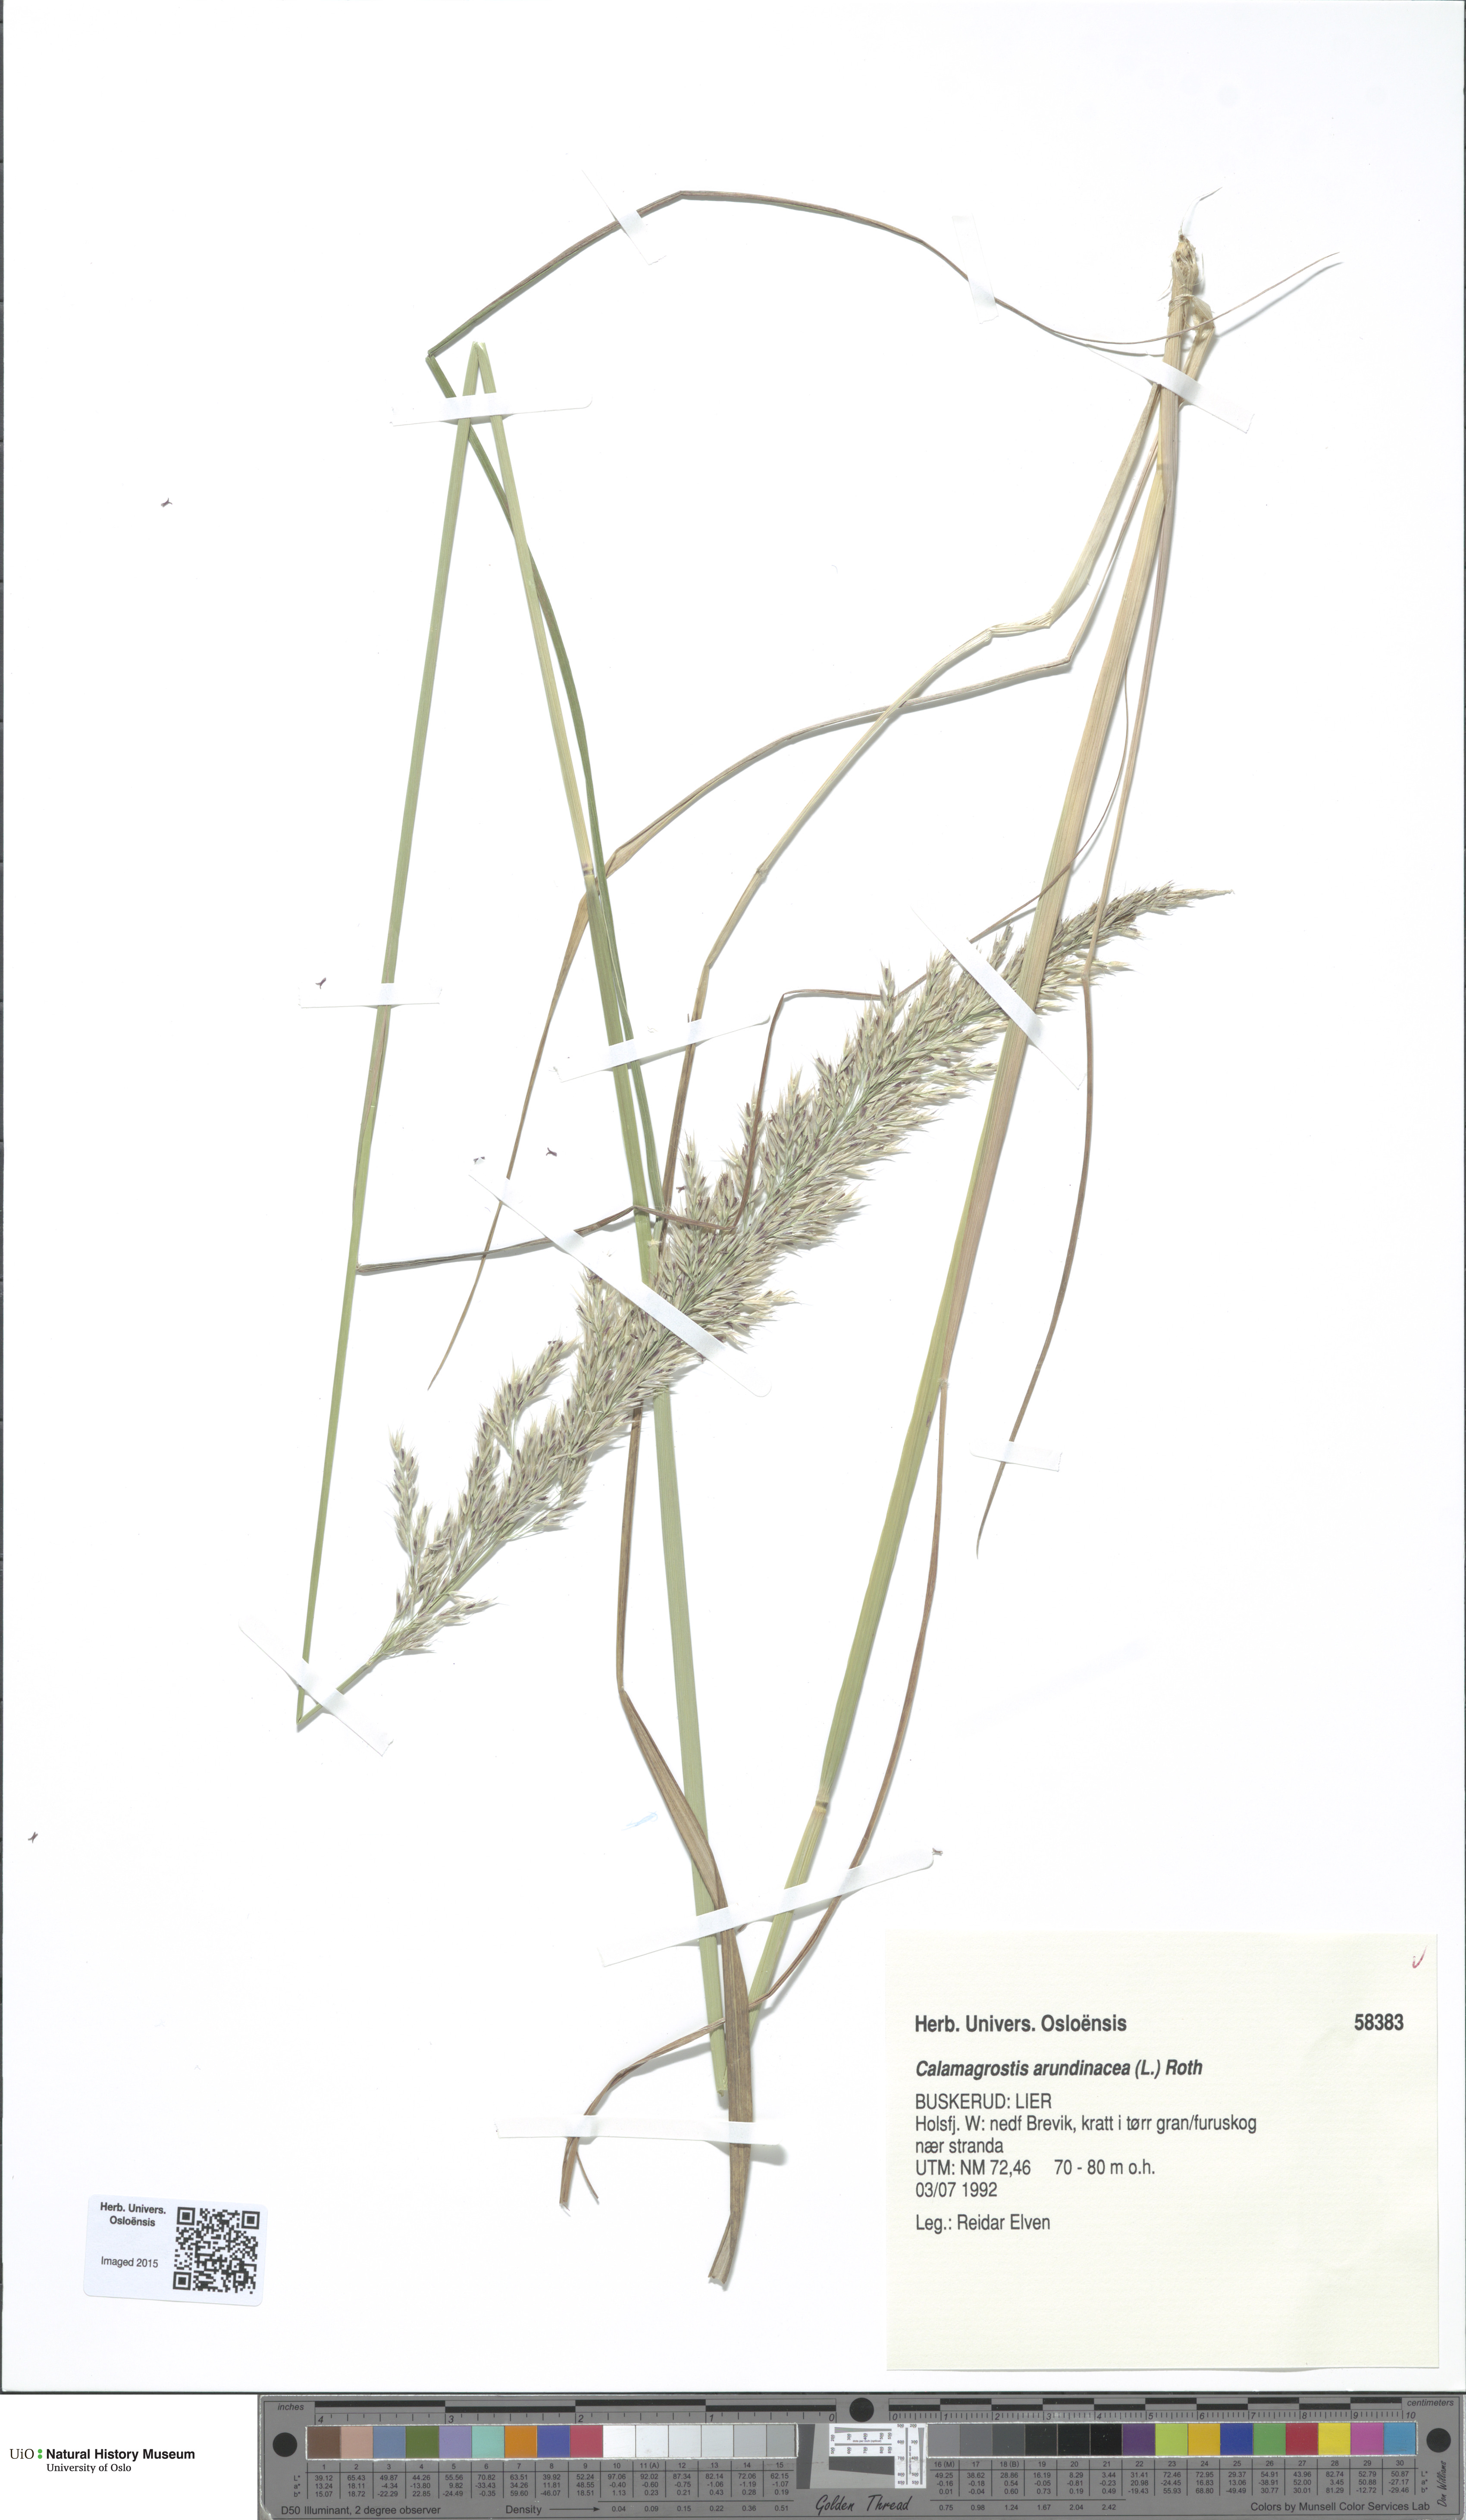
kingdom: Plantae
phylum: Tracheophyta
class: Liliopsida
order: Poales
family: Poaceae
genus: Calamagrostis
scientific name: Calamagrostis arundinacea
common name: Metskastik
